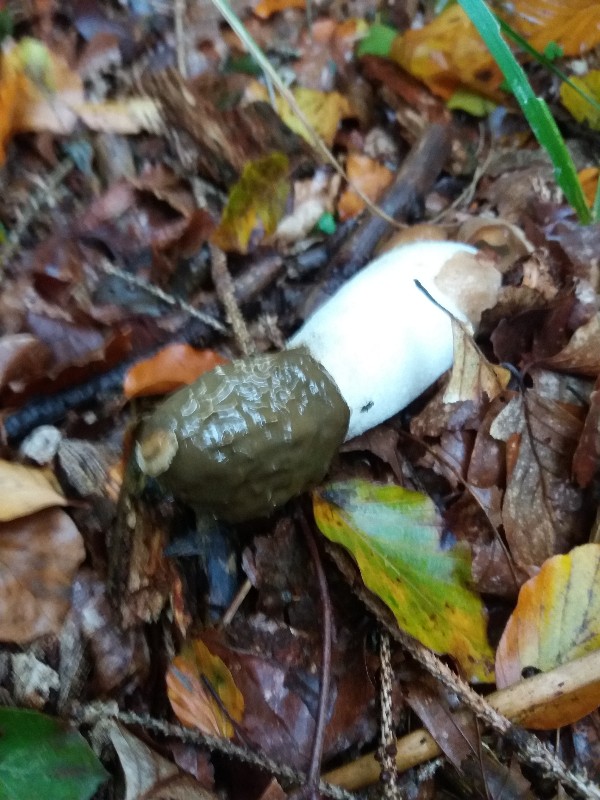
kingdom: Fungi
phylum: Basidiomycota
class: Agaricomycetes
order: Phallales
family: Phallaceae
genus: Phallus
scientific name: Phallus impudicus
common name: almindelig stinksvamp
